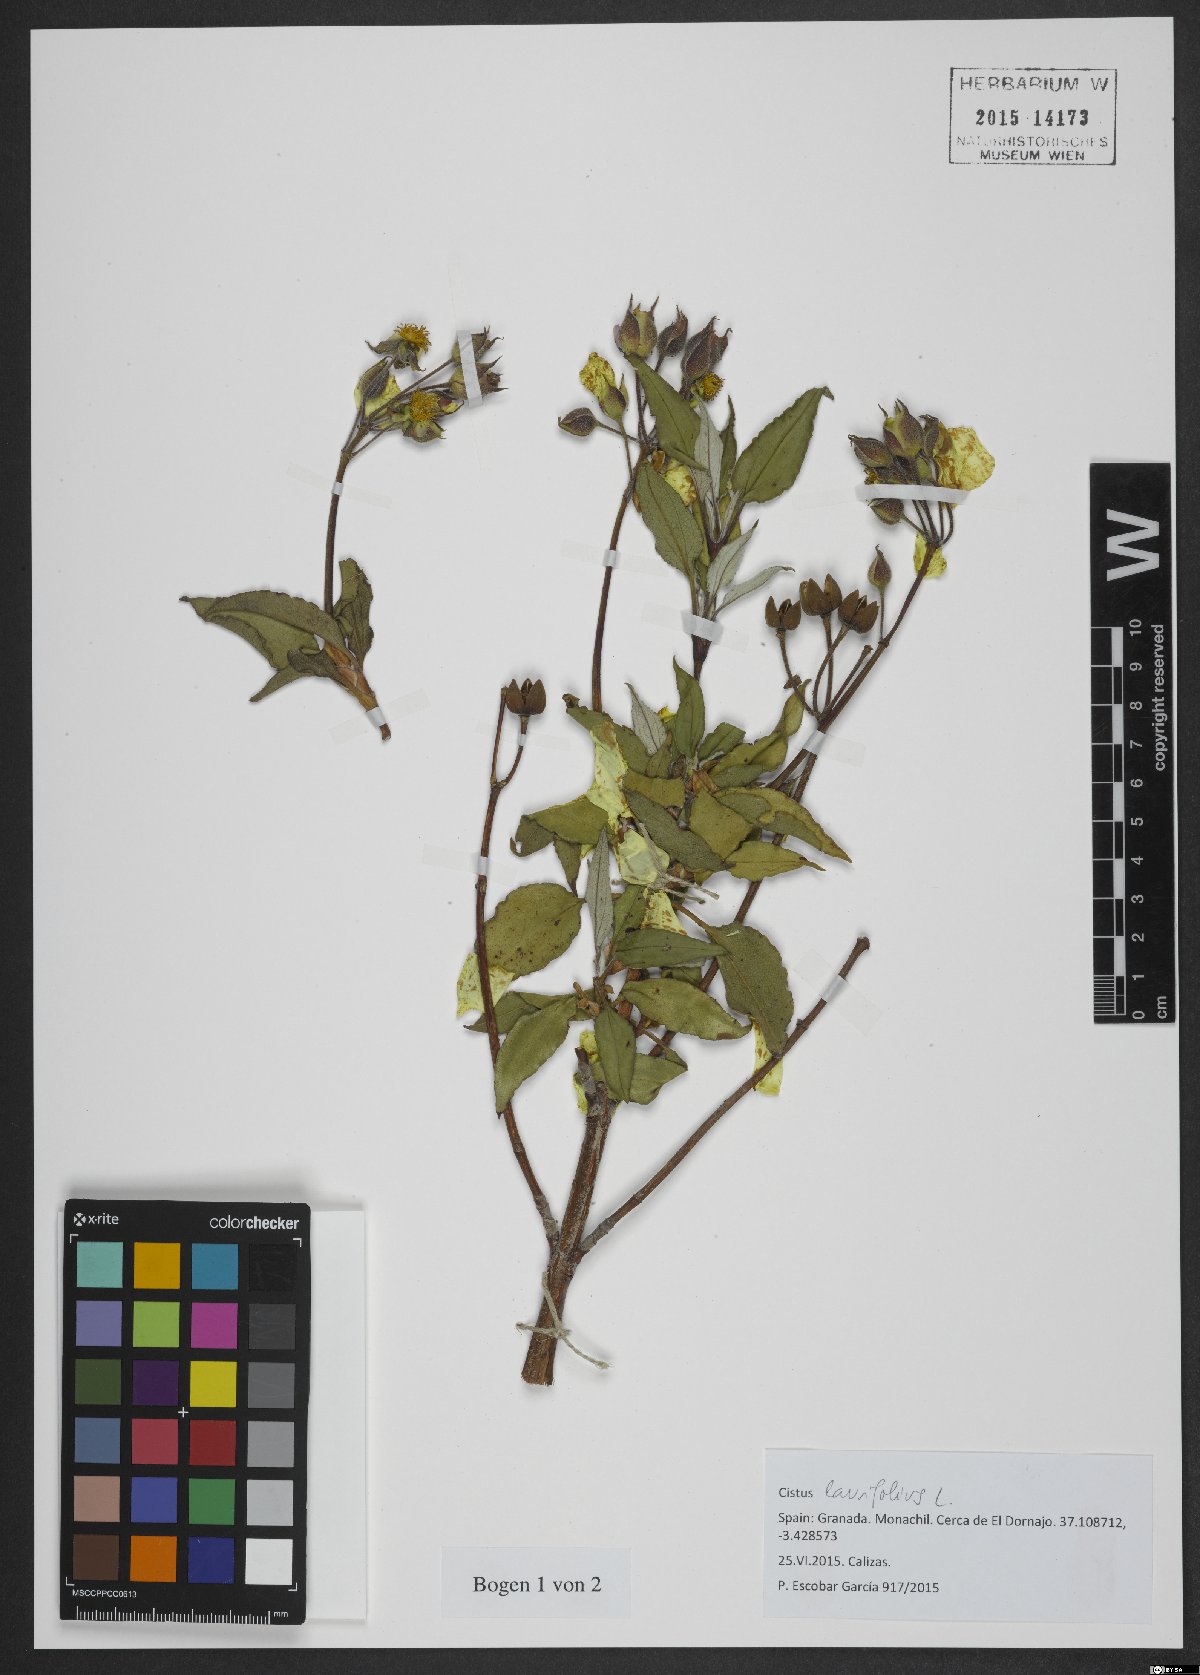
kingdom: Plantae
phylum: Tracheophyta
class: Magnoliopsida
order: Malvales
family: Cistaceae
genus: Cistus
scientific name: Cistus laurifolius
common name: Laurel-leaved cistus
